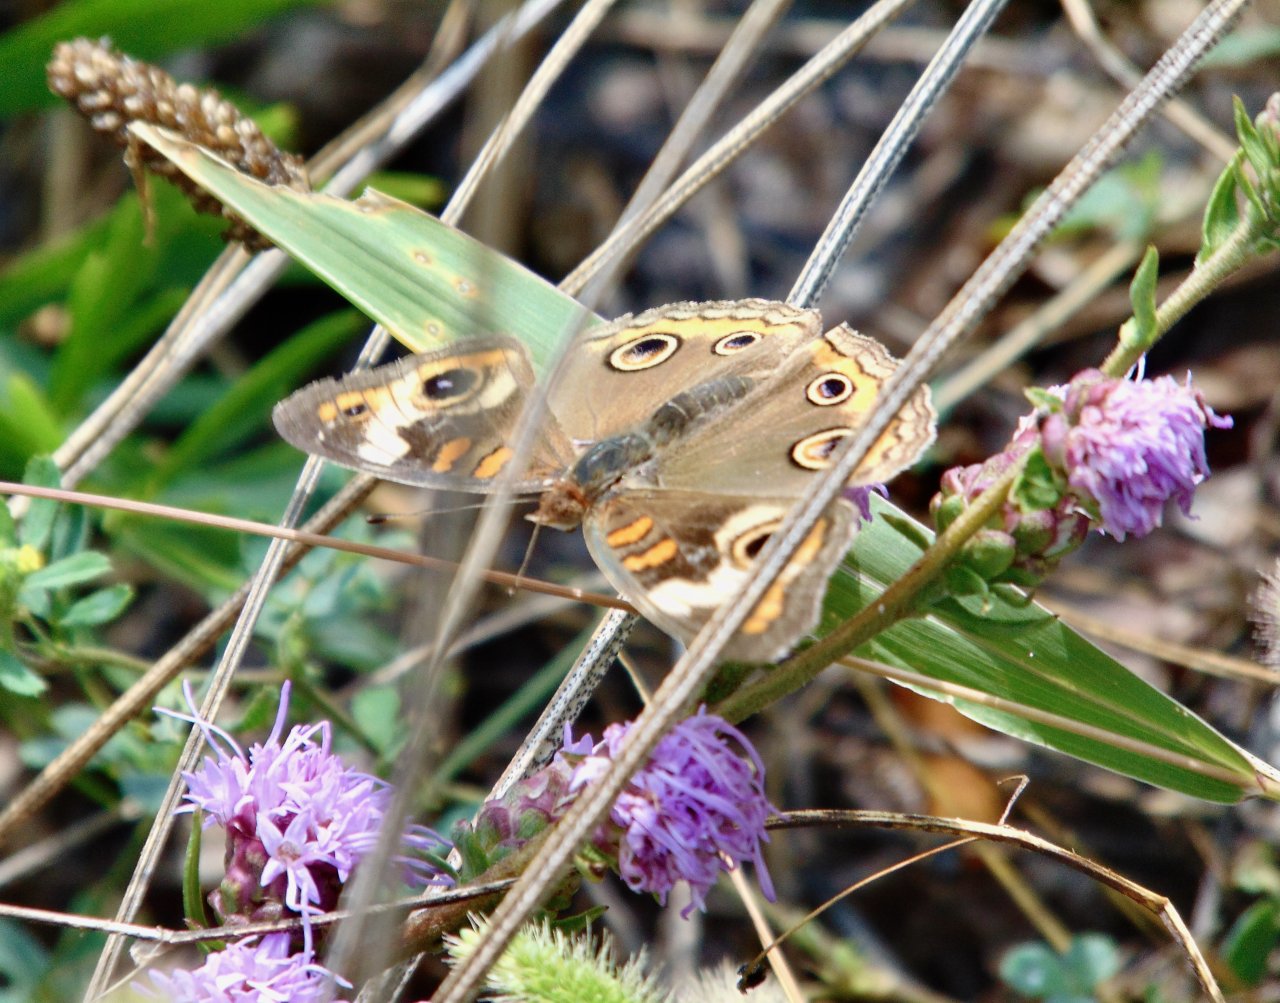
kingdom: Animalia
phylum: Arthropoda
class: Insecta
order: Lepidoptera
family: Nymphalidae
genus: Junonia
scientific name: Junonia coenia
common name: Common Buckeye
